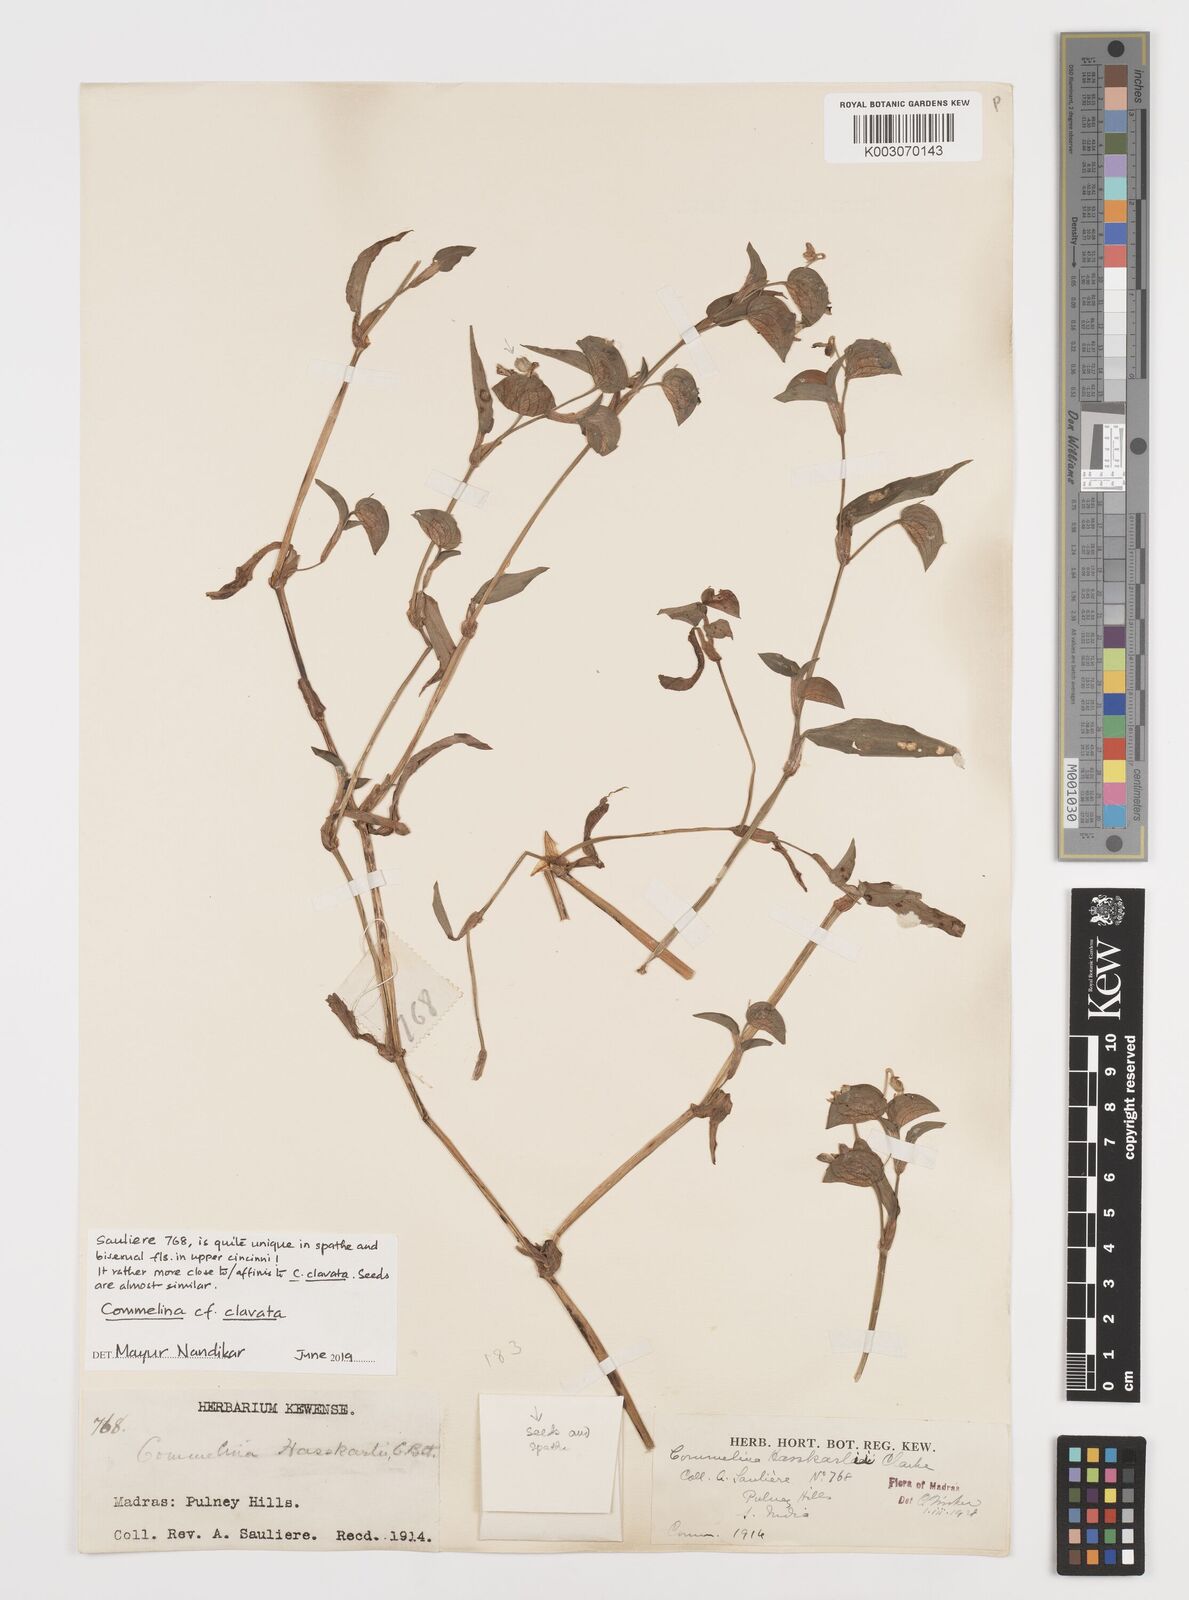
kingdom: Plantae
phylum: Tracheophyta
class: Liliopsida
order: Commelinales
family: Commelinaceae
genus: Commelina
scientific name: Commelina clavata
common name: Willow leaved dayflower
